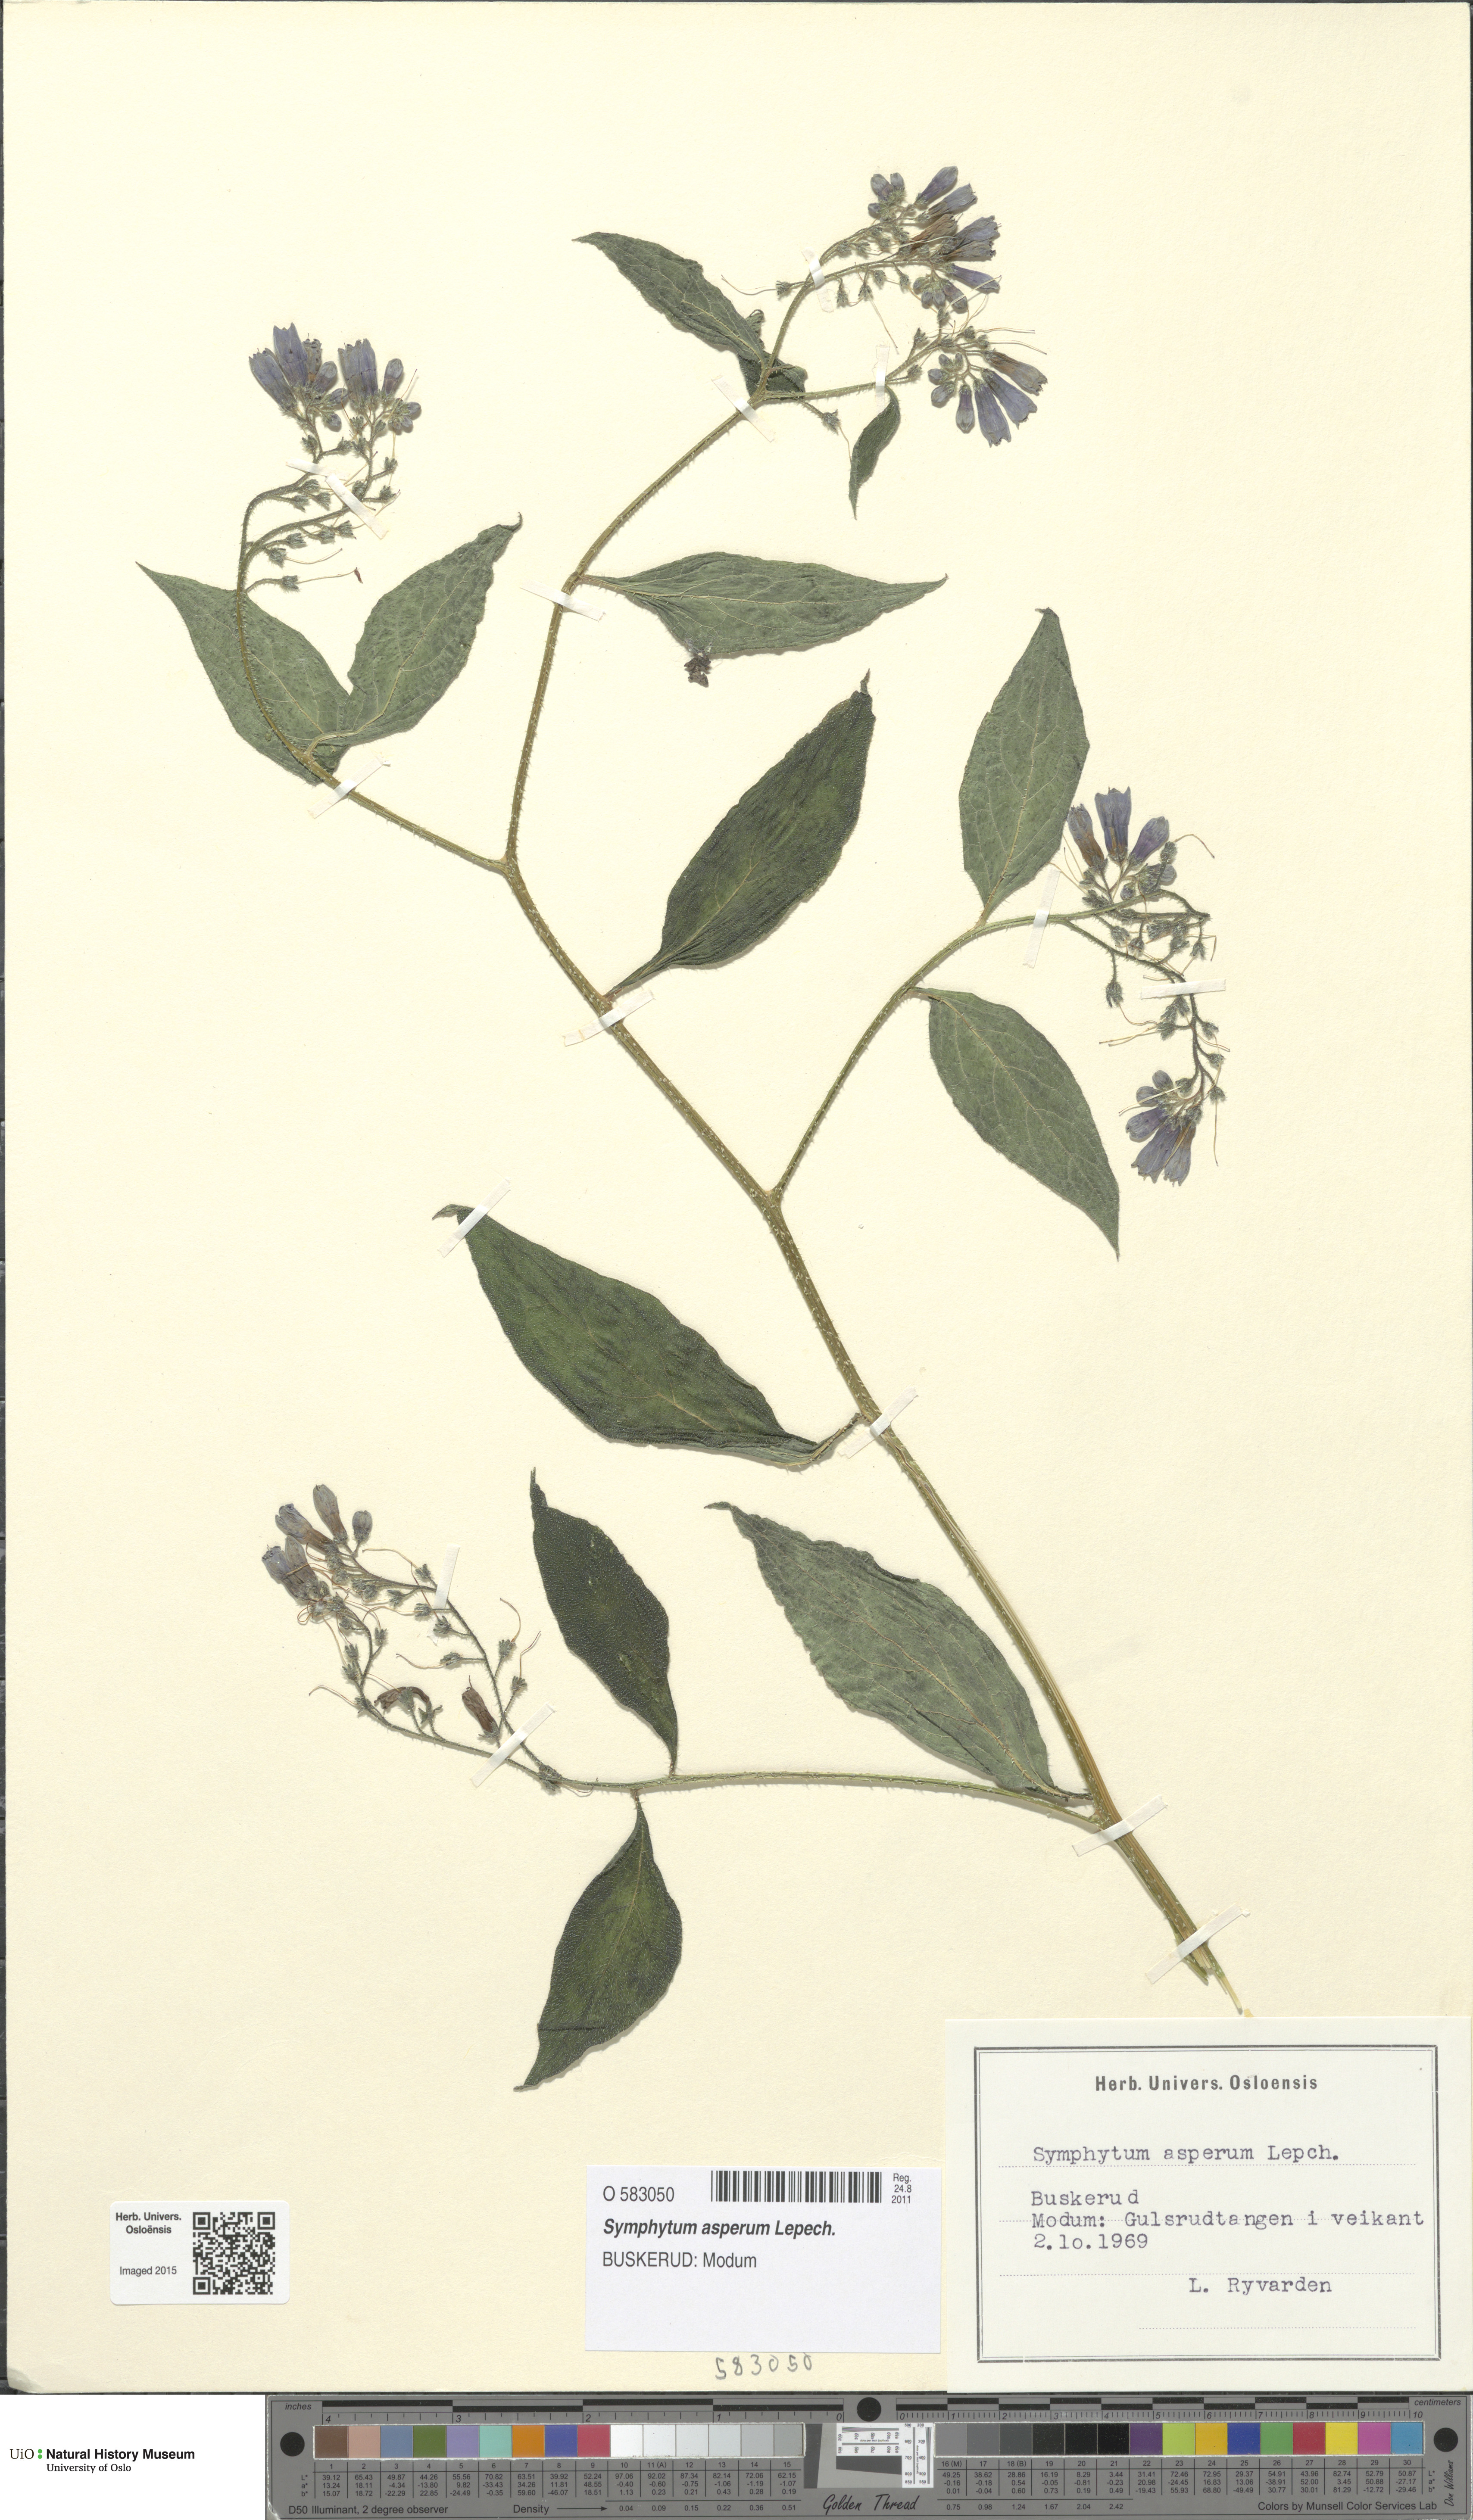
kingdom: Plantae
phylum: Tracheophyta
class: Magnoliopsida
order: Boraginales
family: Boraginaceae
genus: Symphytum
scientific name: Symphytum asperum
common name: Prickly comfrey
